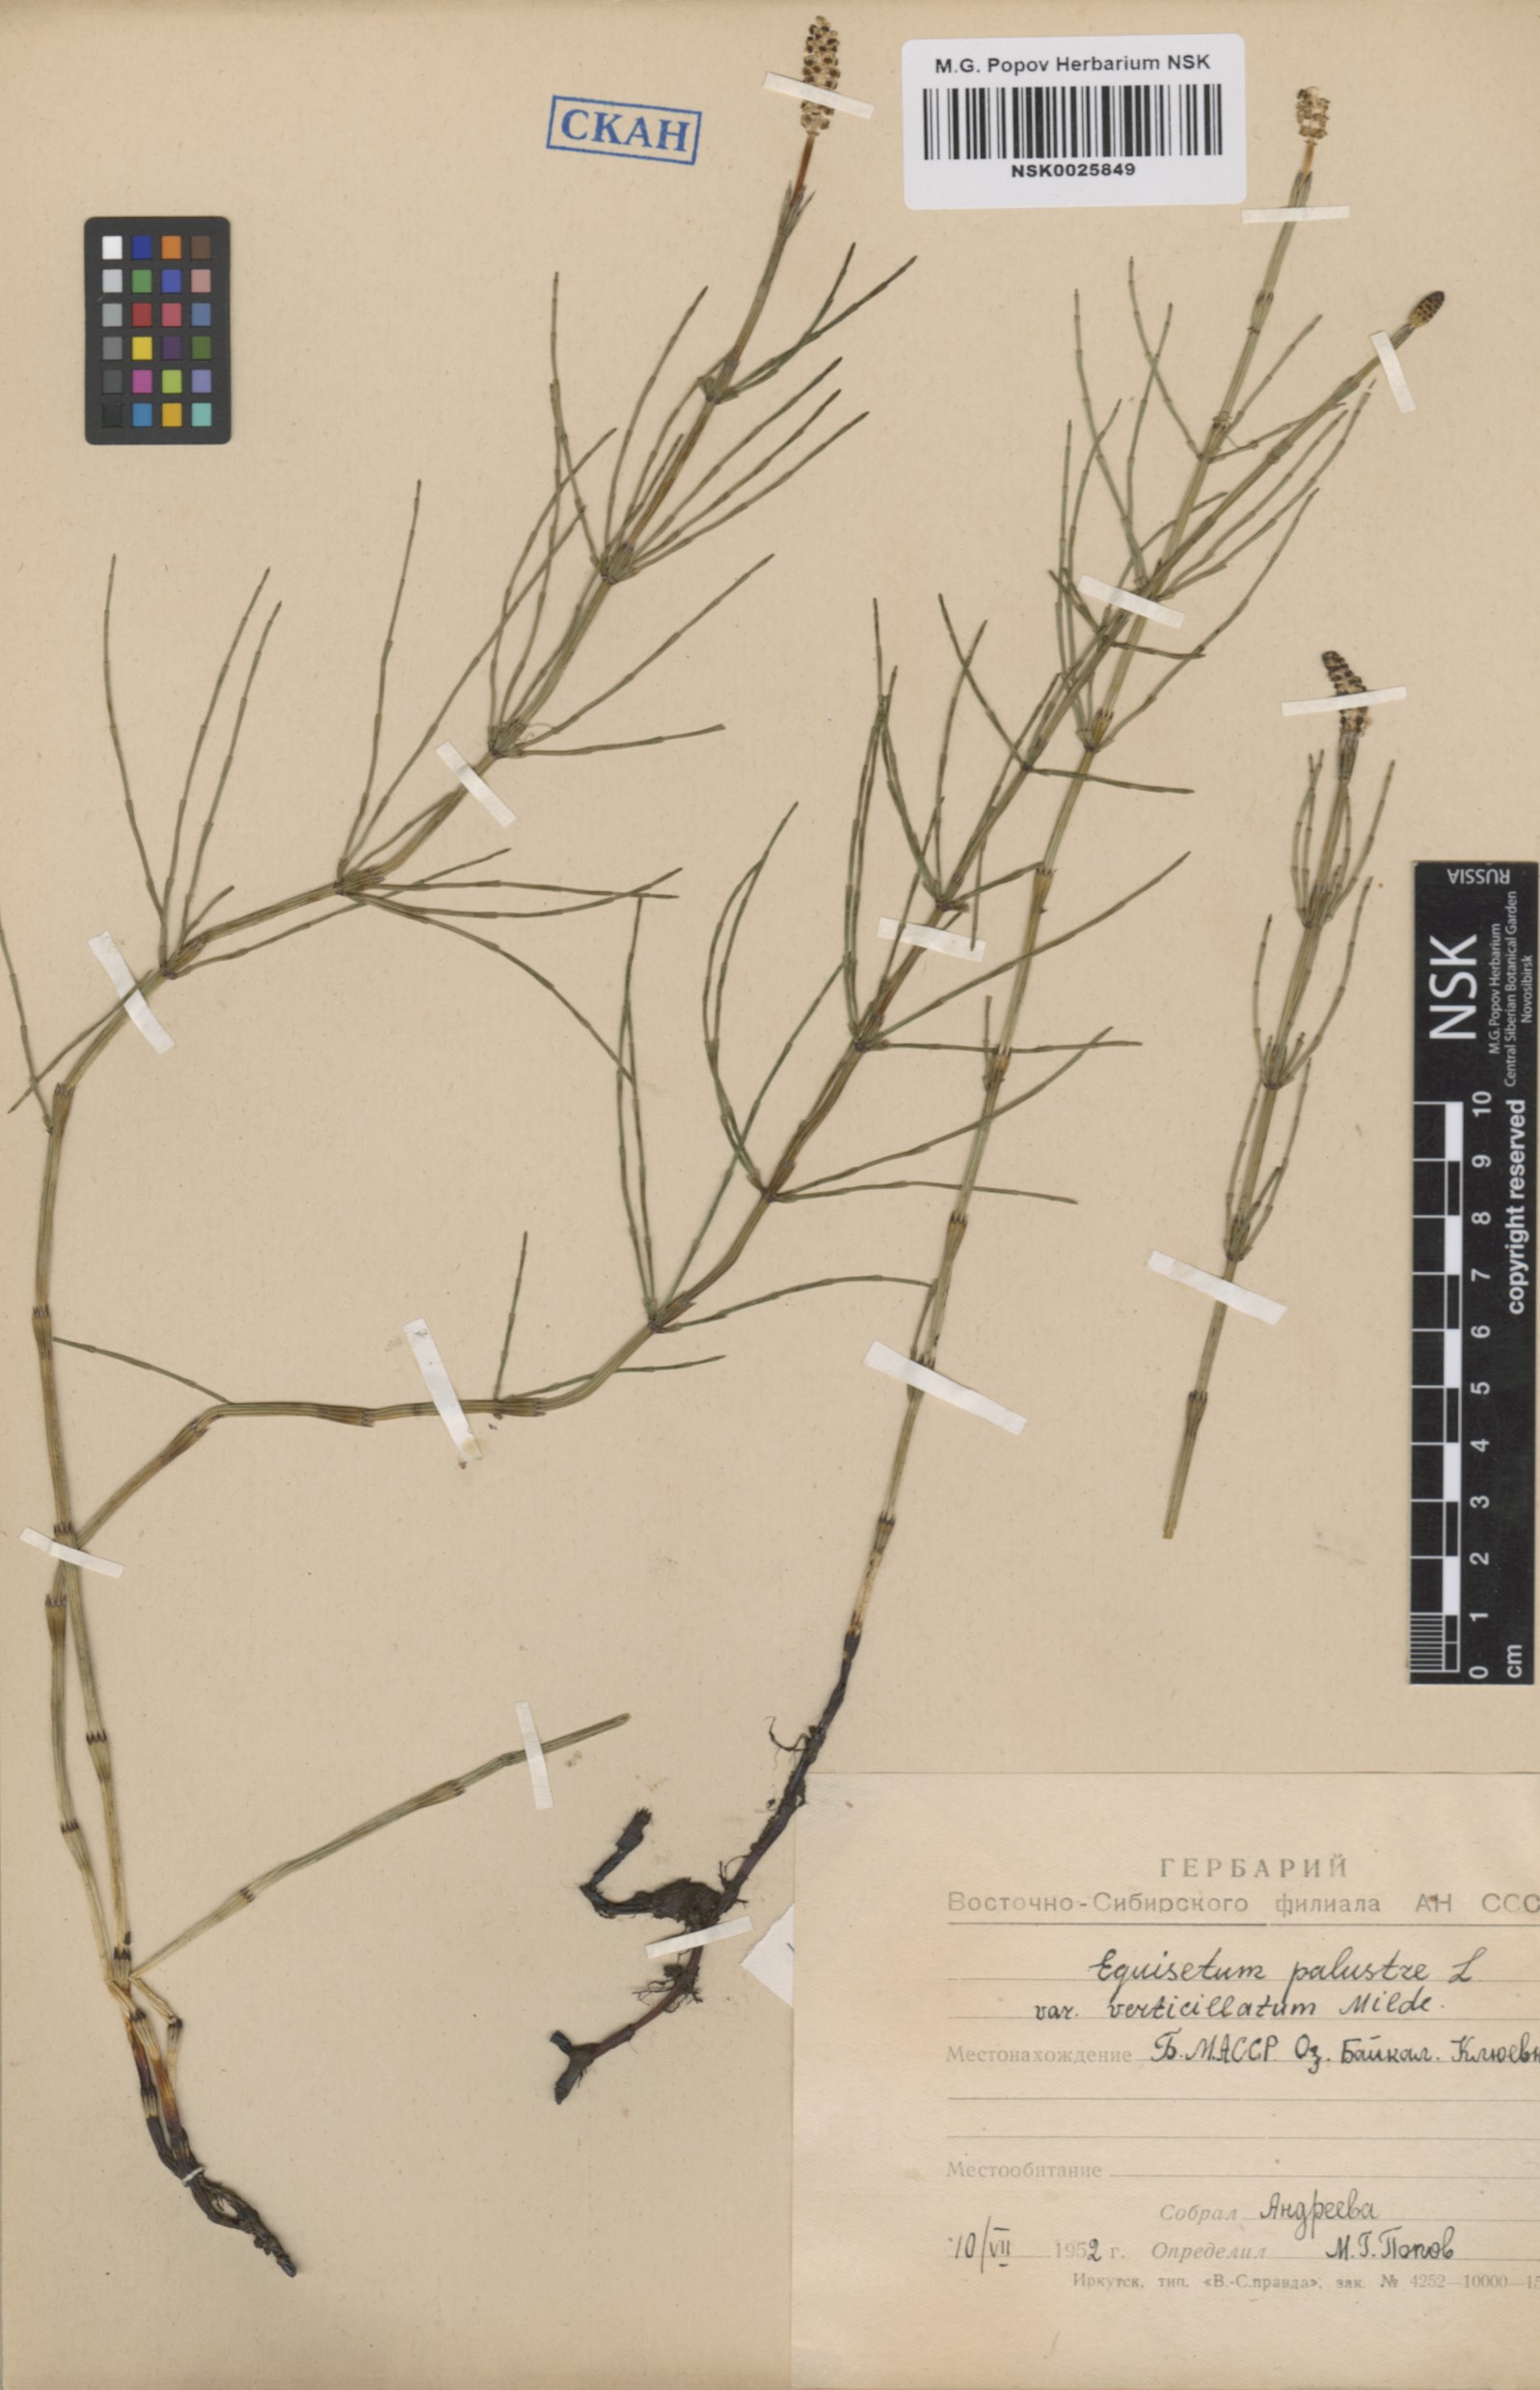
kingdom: Plantae
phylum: Tracheophyta
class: Polypodiopsida
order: Equisetales
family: Equisetaceae
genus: Equisetum
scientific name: Equisetum palustre
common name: Marsh horsetail
